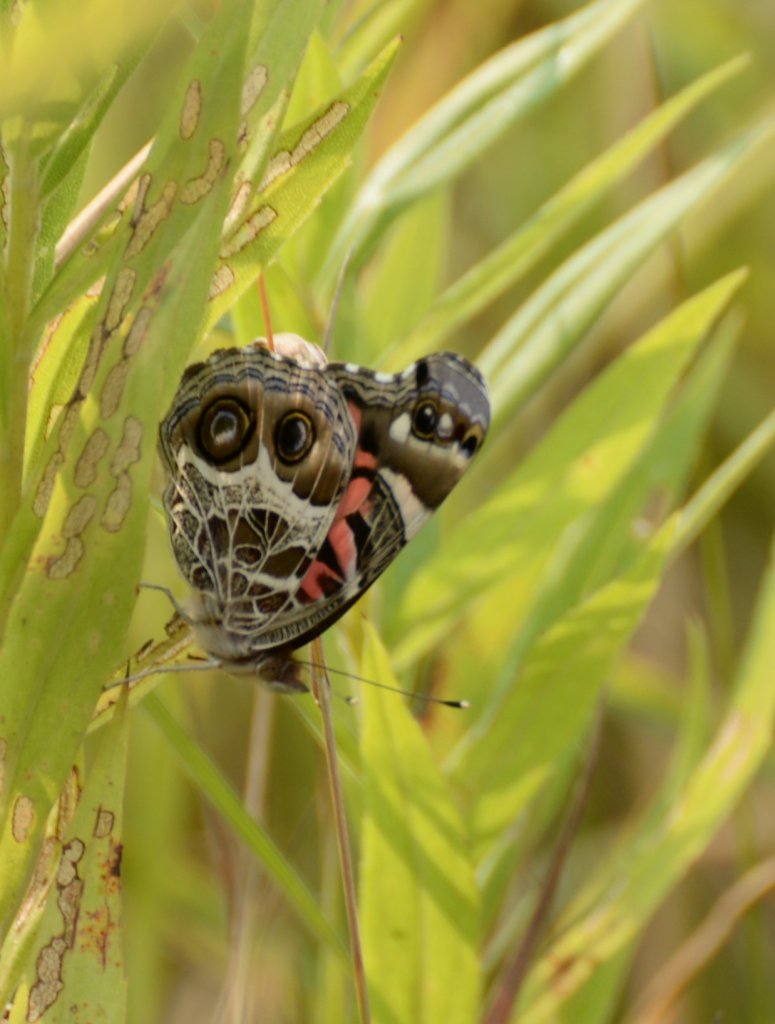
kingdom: Animalia
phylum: Arthropoda
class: Insecta
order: Lepidoptera
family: Nymphalidae
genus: Vanessa
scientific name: Vanessa virginiensis
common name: American Lady
